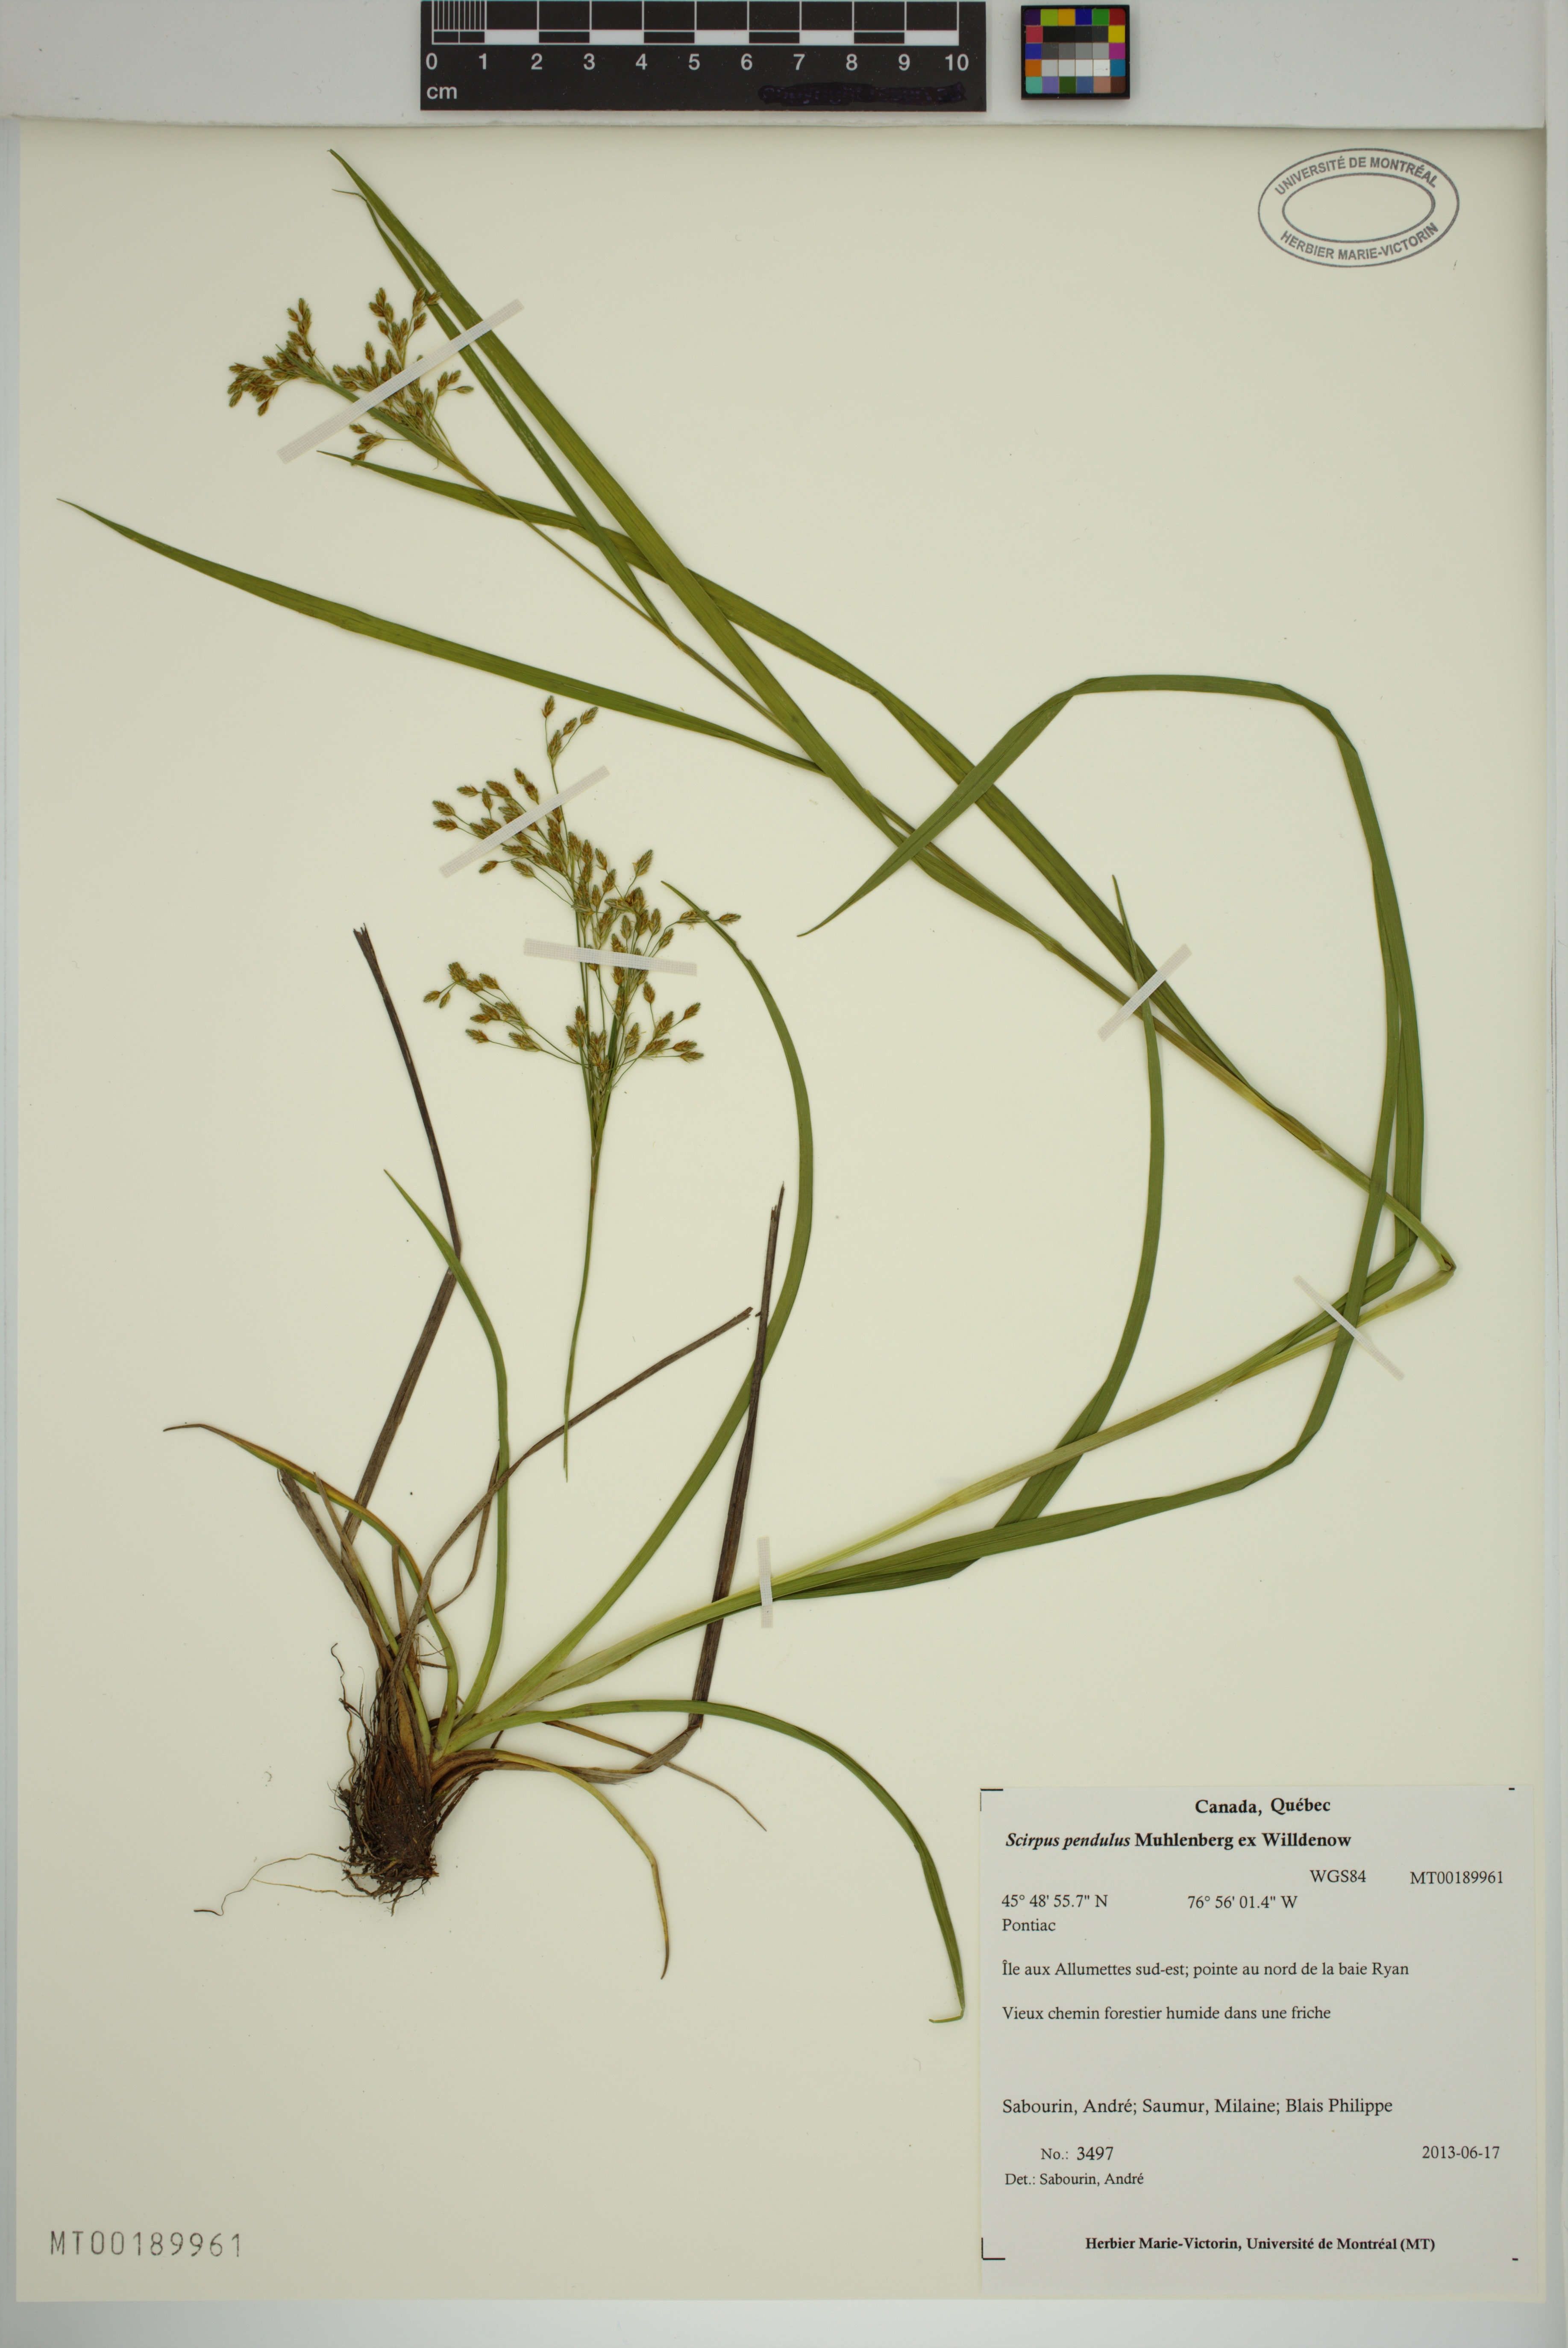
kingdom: Plantae
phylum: Tracheophyta
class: Liliopsida
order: Poales
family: Cyperaceae
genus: Scirpus
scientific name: Scirpus pendulus
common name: Nodding bulrush
